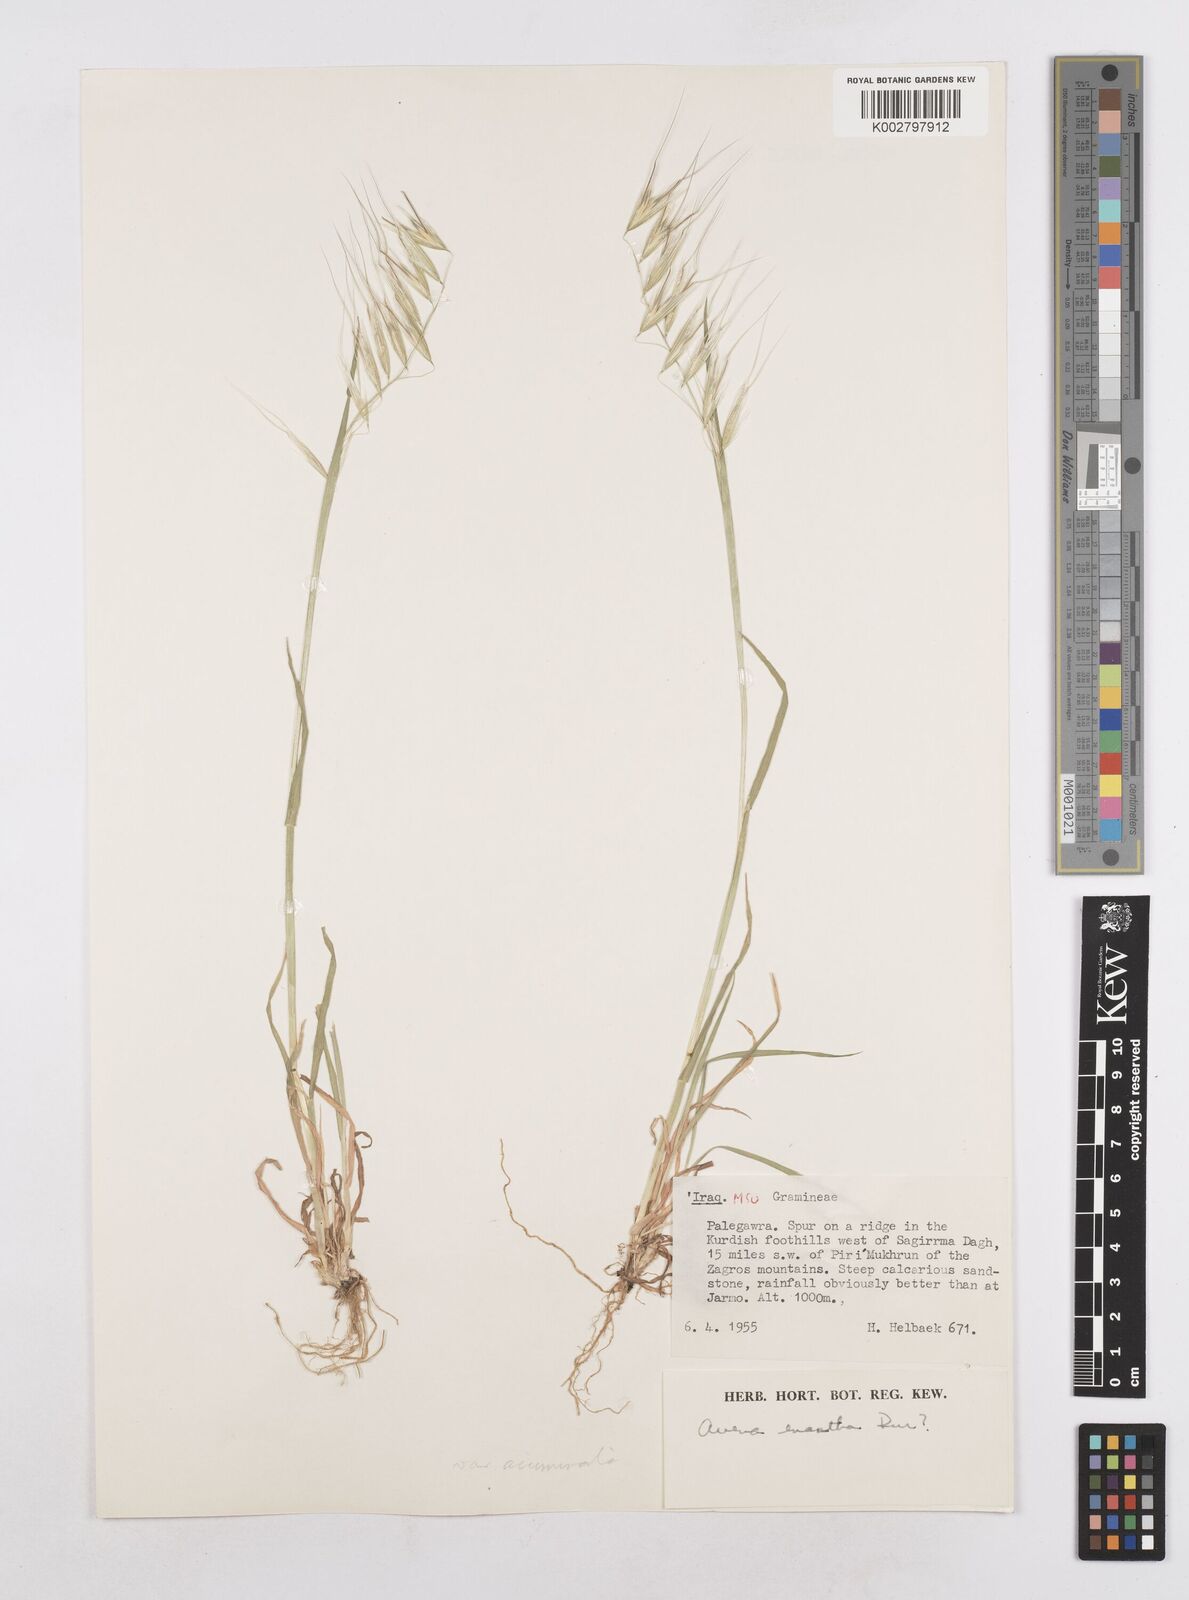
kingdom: Plantae
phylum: Tracheophyta
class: Liliopsida
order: Poales
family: Poaceae
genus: Avena
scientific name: Avena eriantha
